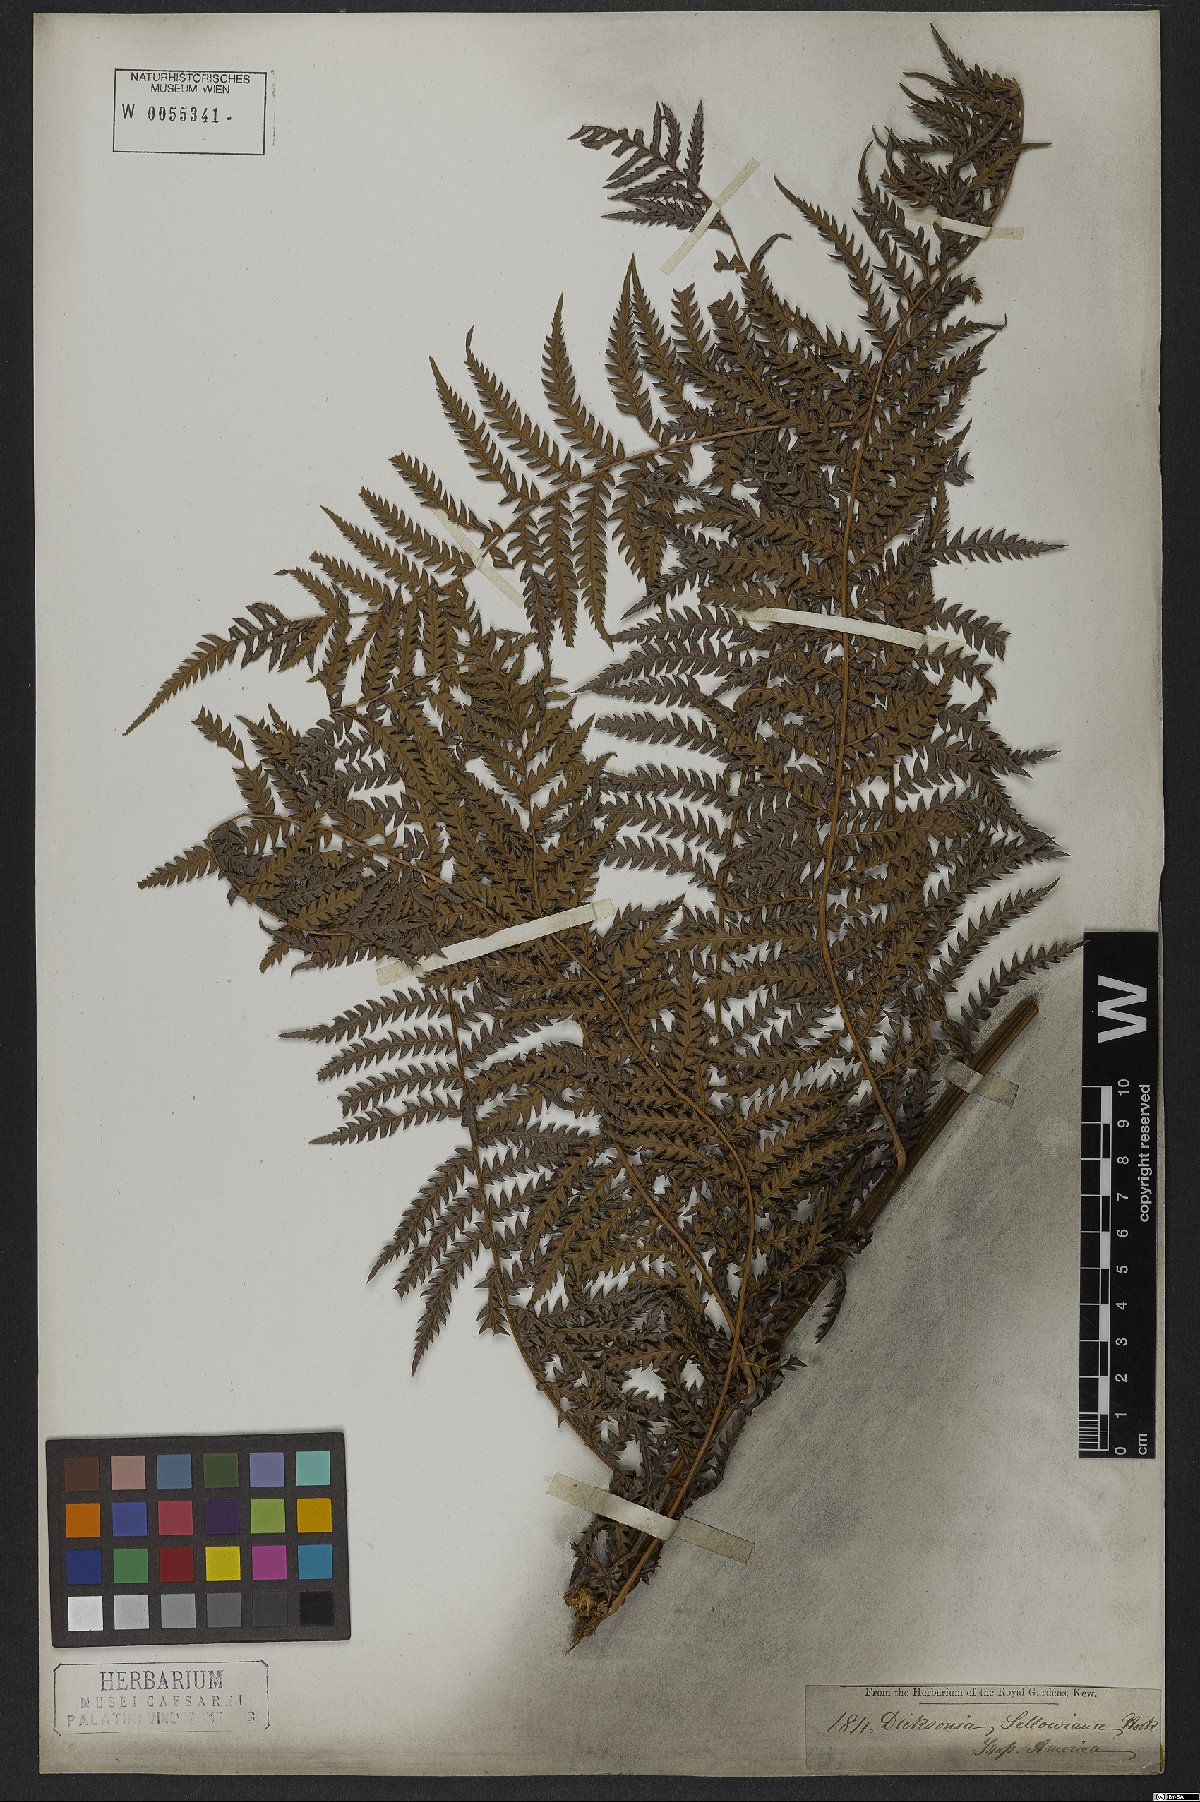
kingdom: Plantae
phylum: Tracheophyta
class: Polypodiopsida
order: Cyatheales
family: Dicksoniaceae
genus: Dicksonia
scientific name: Dicksonia sellowiana
